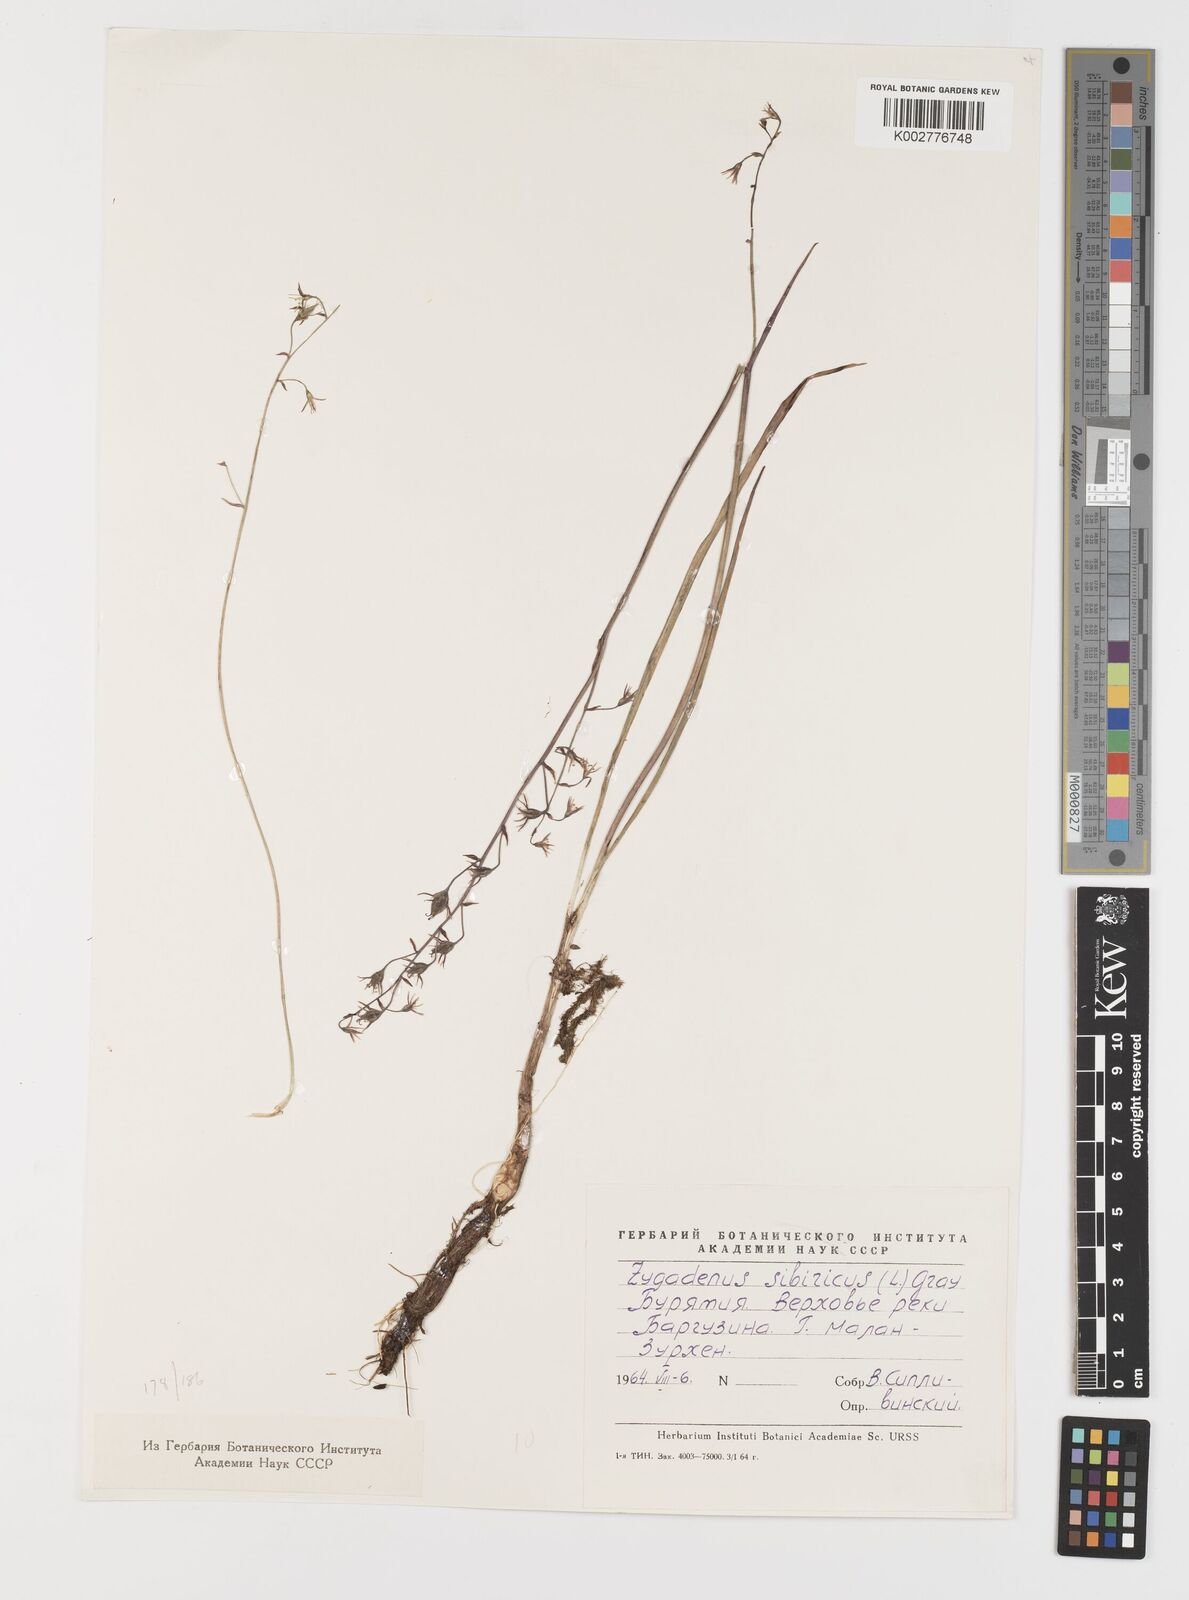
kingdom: Plantae
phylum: Tracheophyta
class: Liliopsida
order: Liliales
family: Melanthiaceae
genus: Anticlea
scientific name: Anticlea sibirica
